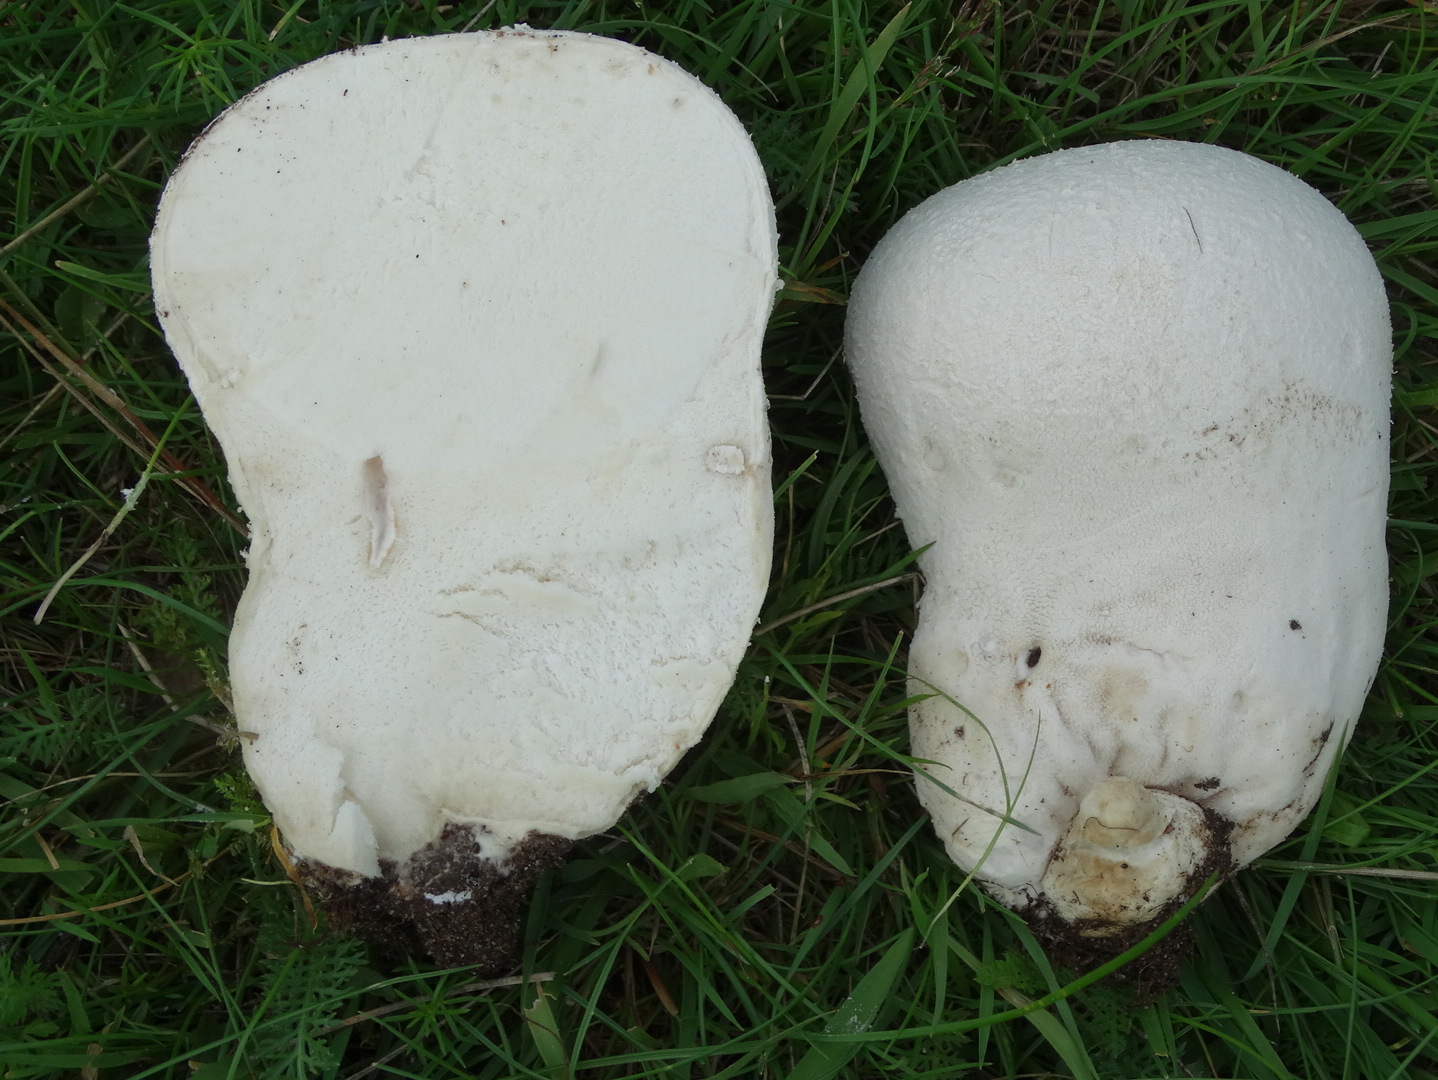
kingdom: Fungi
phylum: Basidiomycota
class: Agaricomycetes
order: Agaricales
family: Lycoperdaceae
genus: Bovistella
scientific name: Bovistella utriformis
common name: skællet støvbold
